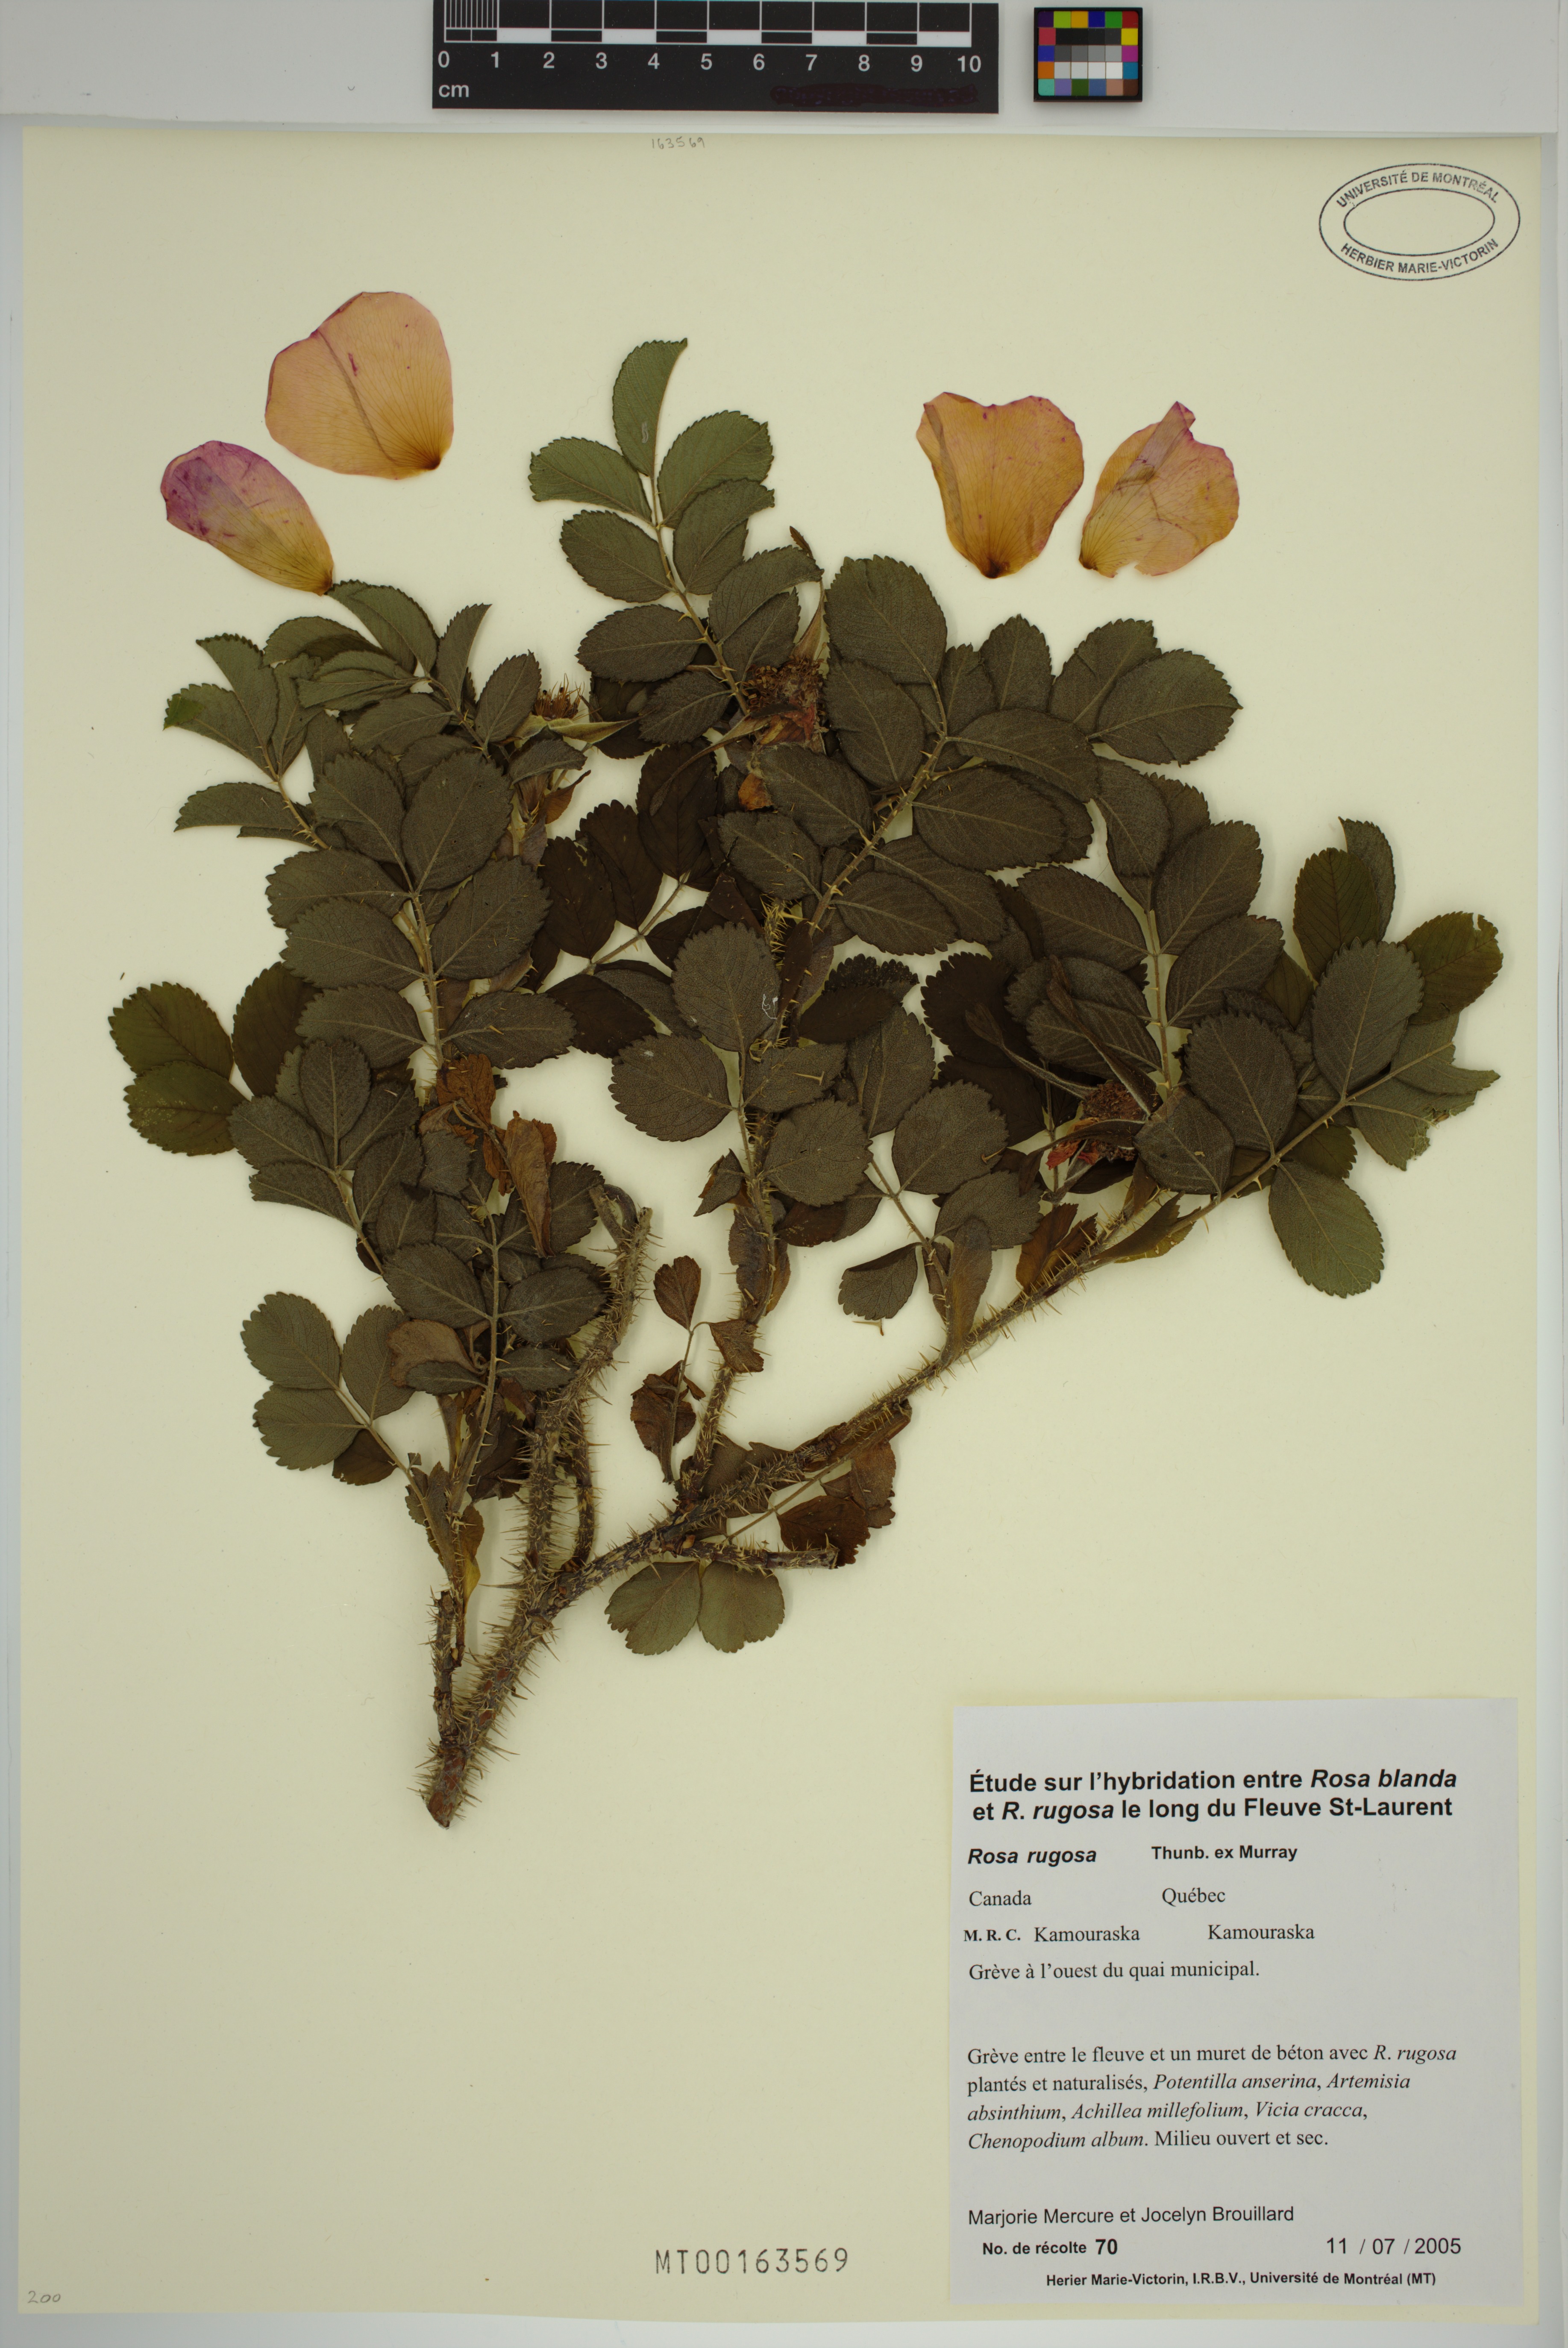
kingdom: Plantae
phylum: Tracheophyta
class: Magnoliopsida
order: Rosales
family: Rosaceae
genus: Rosa
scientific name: Rosa rugosa
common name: Japanese rose
